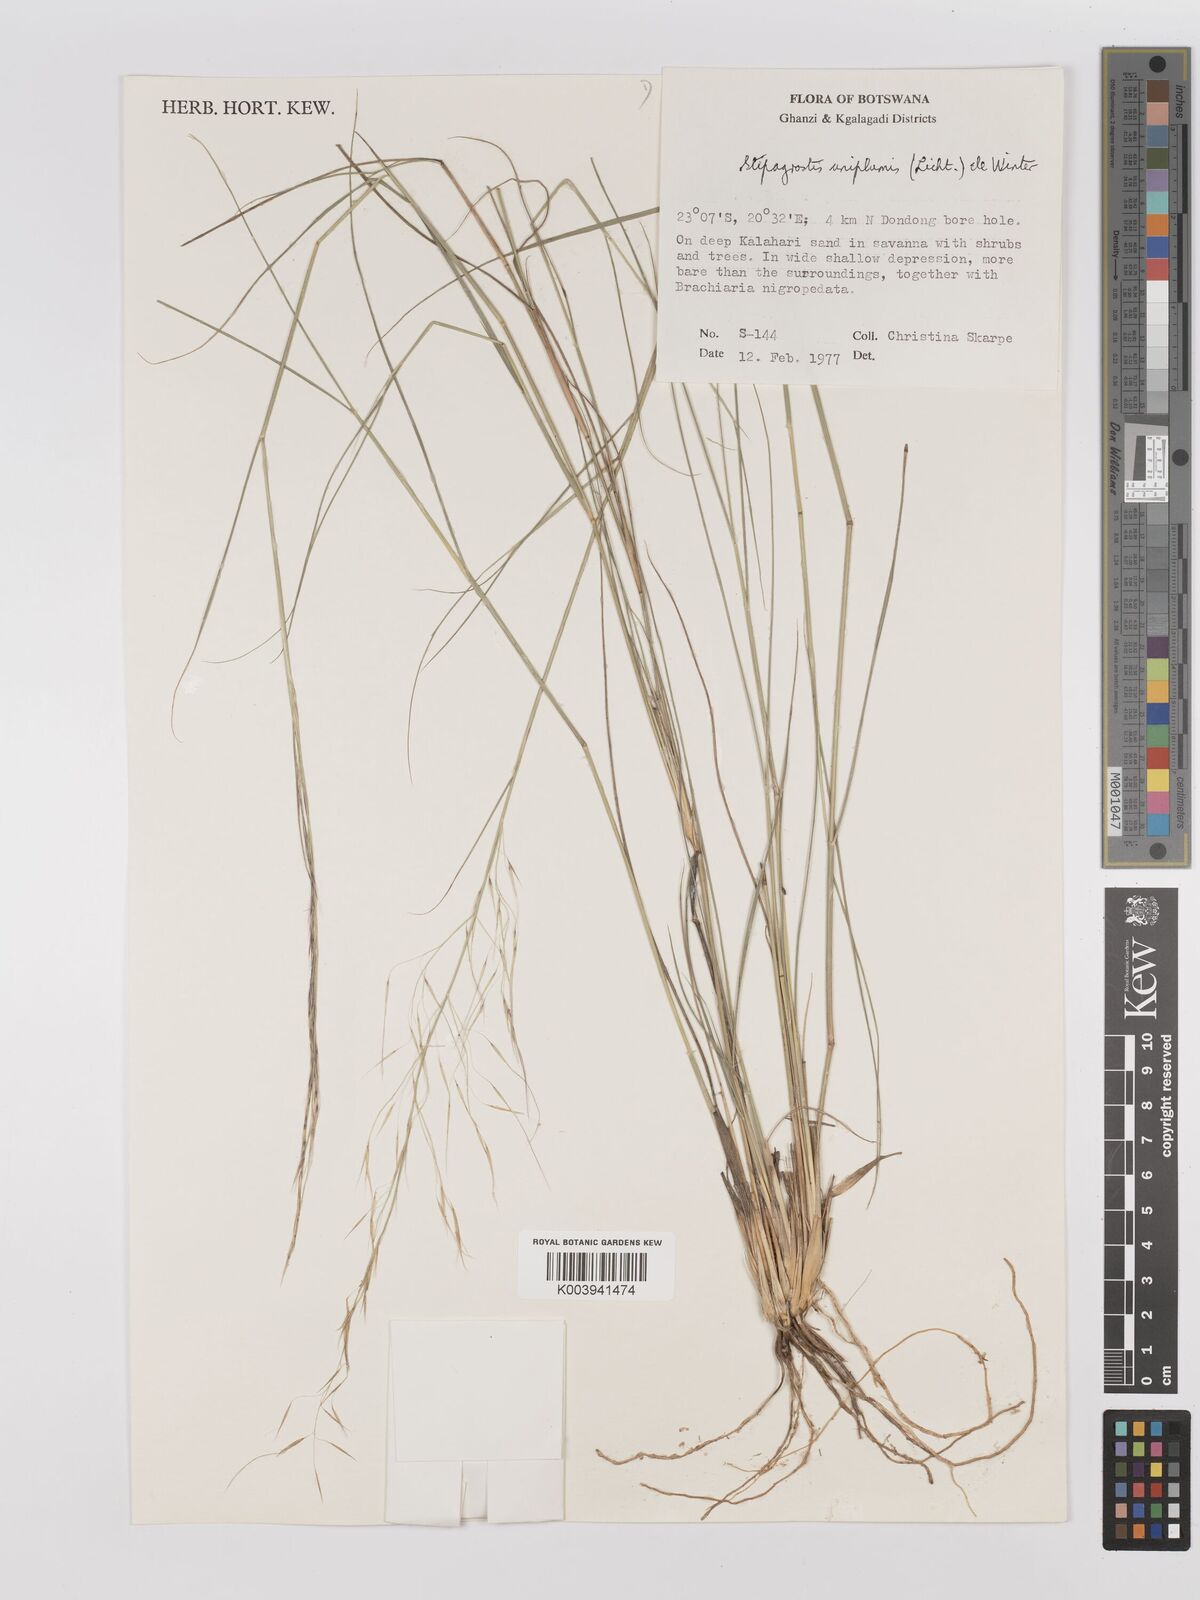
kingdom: Plantae
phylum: Tracheophyta
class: Liliopsida
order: Poales
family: Poaceae
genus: Stipagrostis
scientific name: Stipagrostis uniplumis
